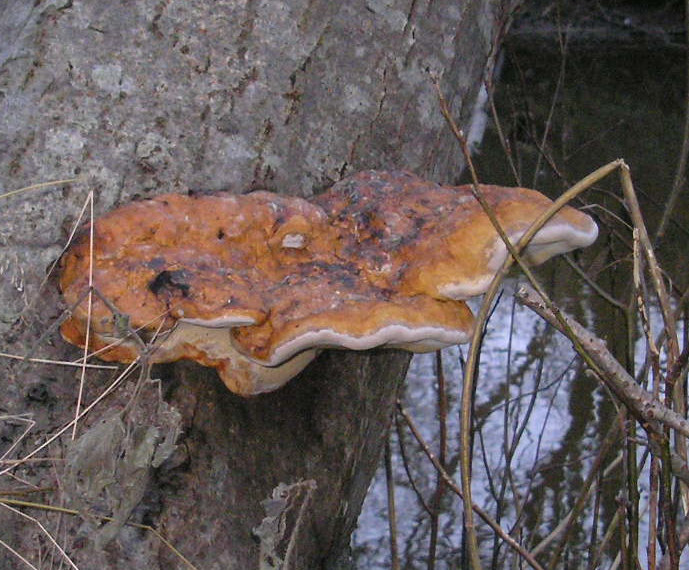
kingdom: Fungi
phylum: Basidiomycota
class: Agaricomycetes
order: Polyporales
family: Fomitopsidaceae
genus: Fomitopsis
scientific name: Fomitopsis pinicola
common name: randbæltet hovporesvamp
